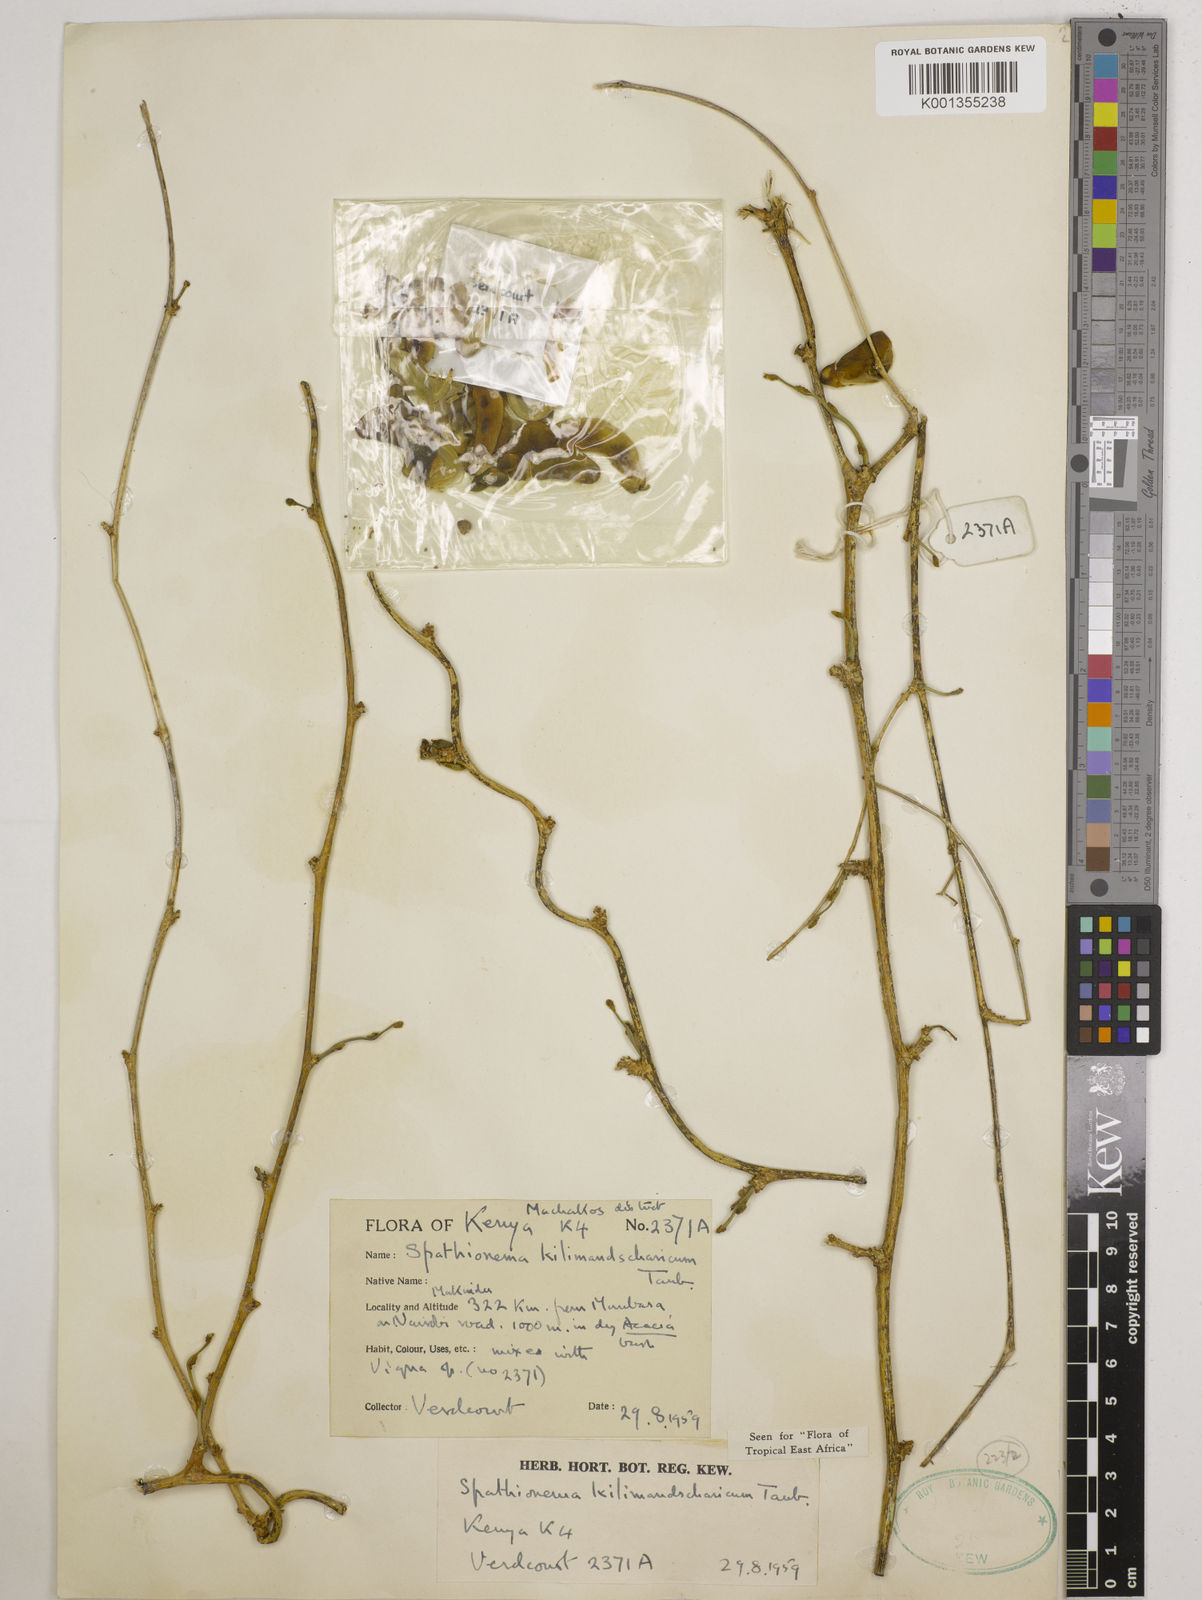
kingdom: Plantae
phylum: Tracheophyta
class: Magnoliopsida
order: Fabales
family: Fabaceae
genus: Spathionema
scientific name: Spathionema kilimandscharicum
